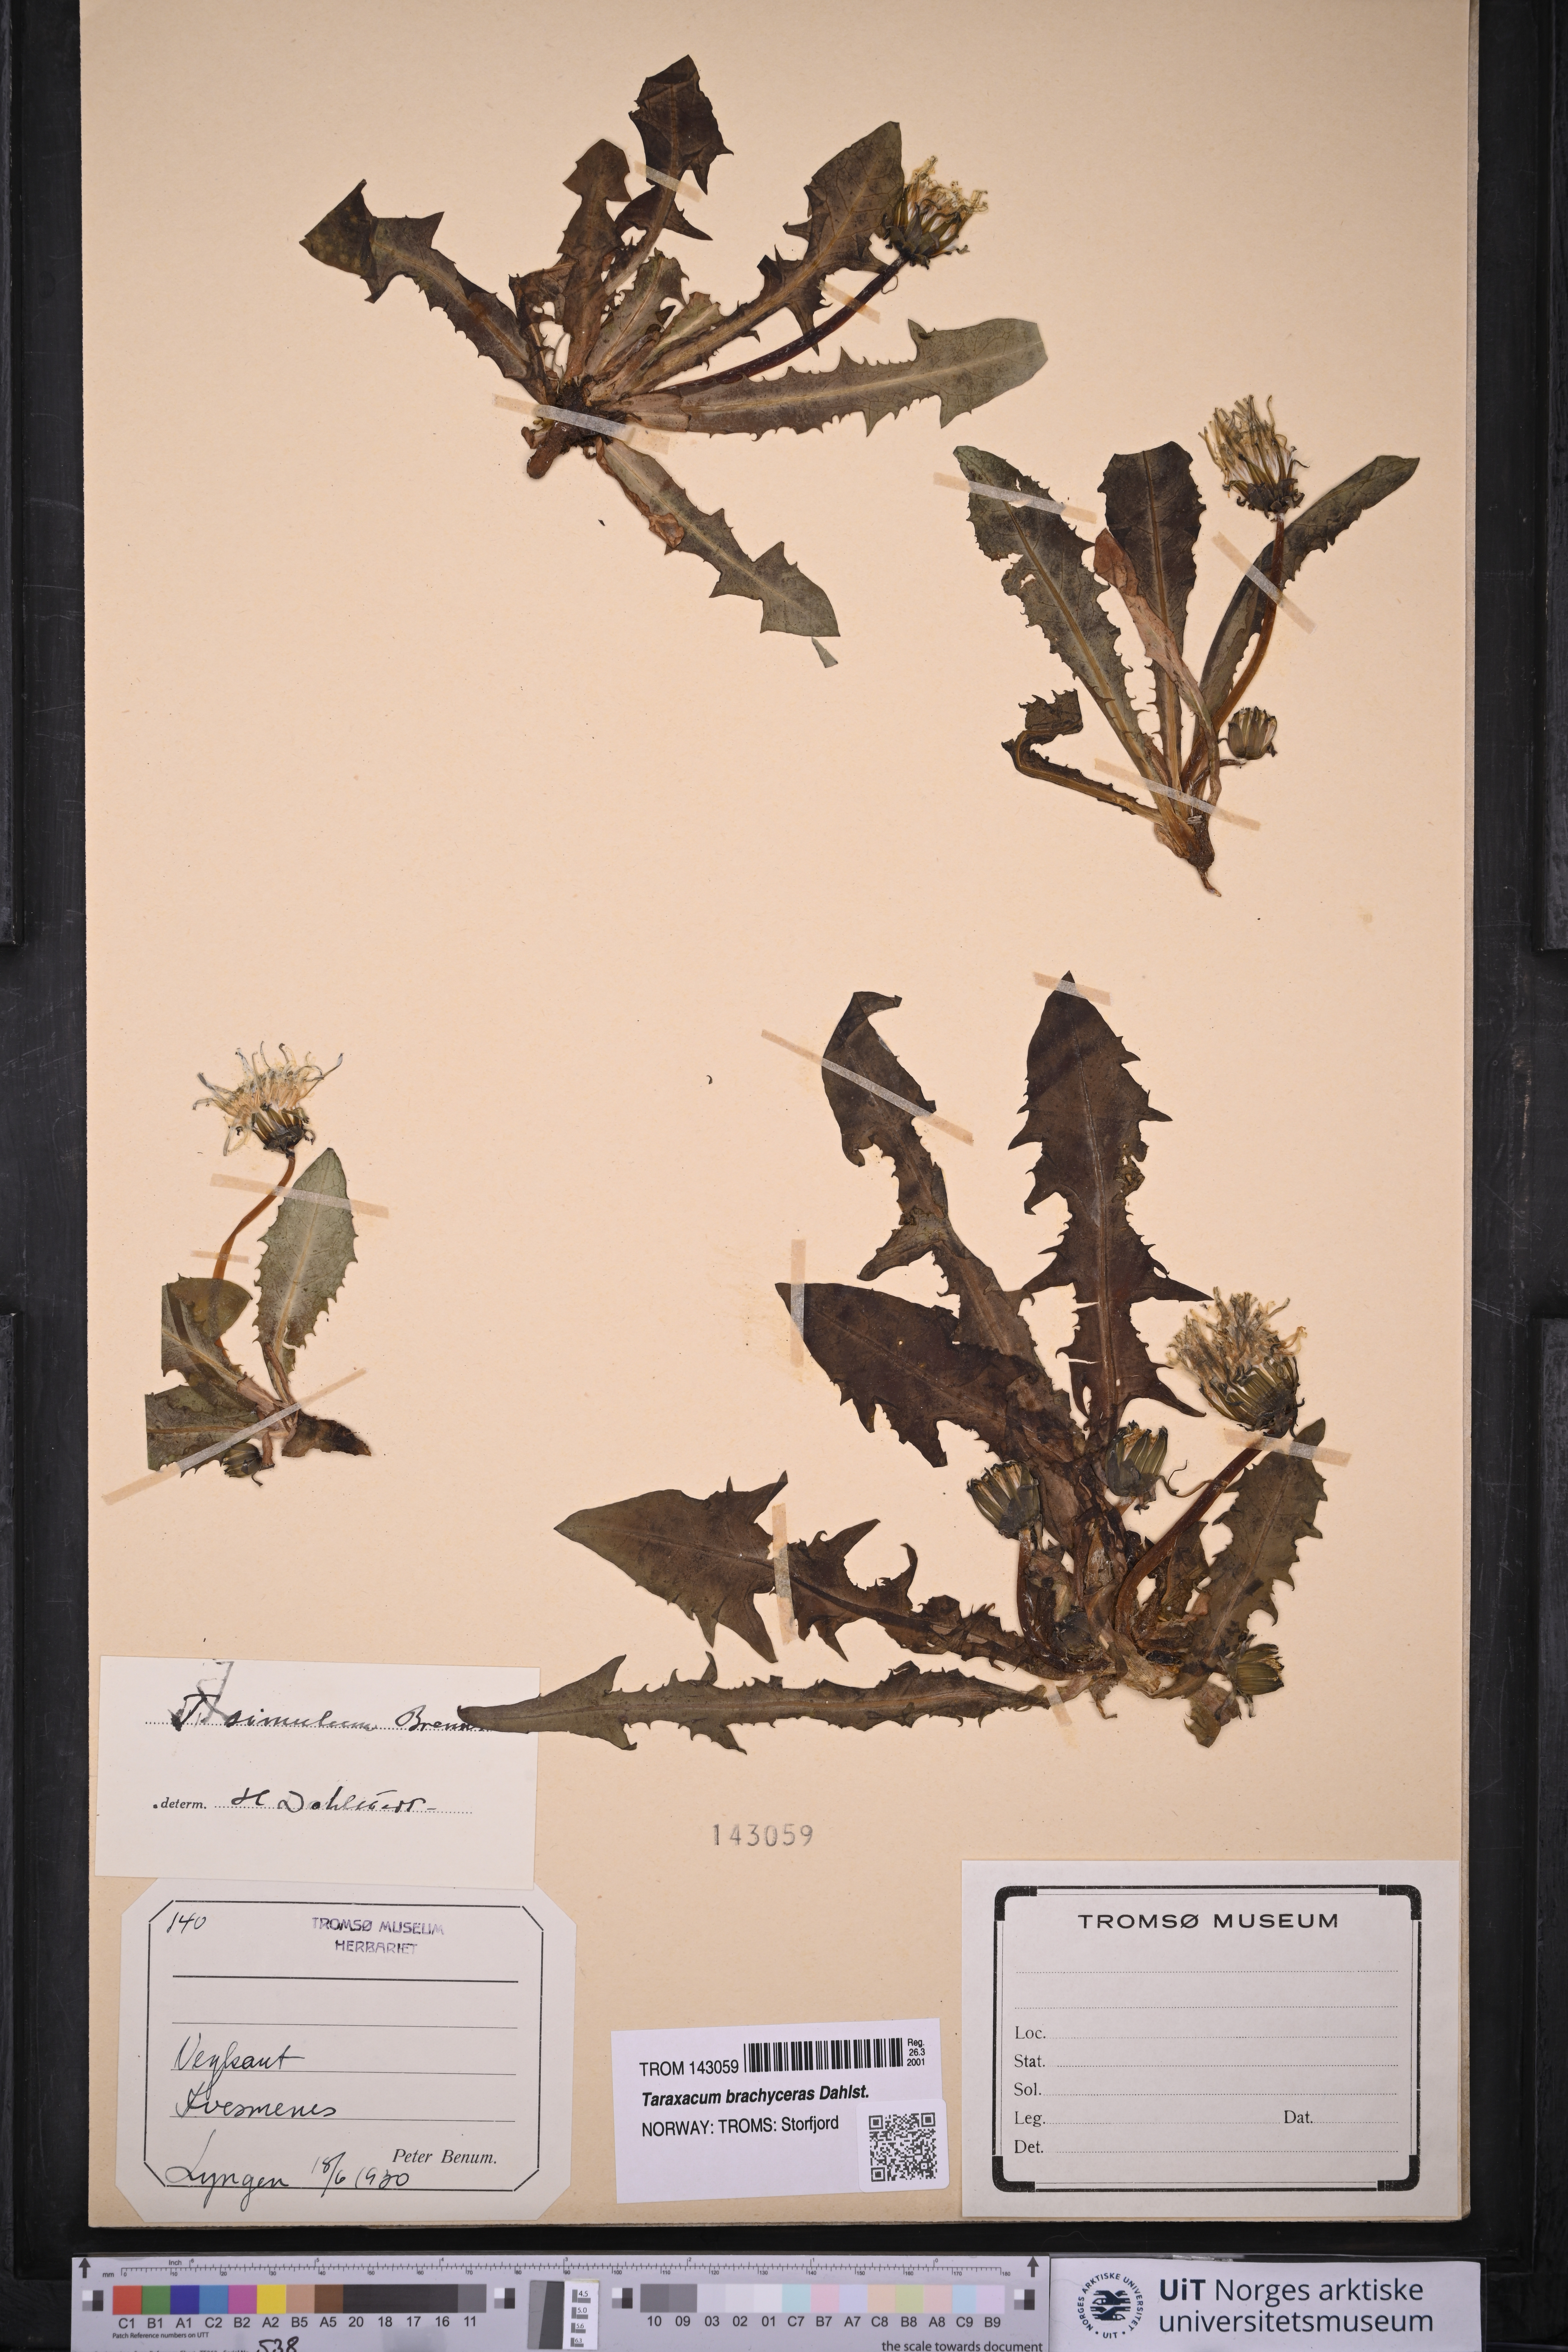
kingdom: Plantae
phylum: Tracheophyta
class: Magnoliopsida
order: Asterales
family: Asteraceae
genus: Taraxacum
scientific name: Taraxacum simulum
